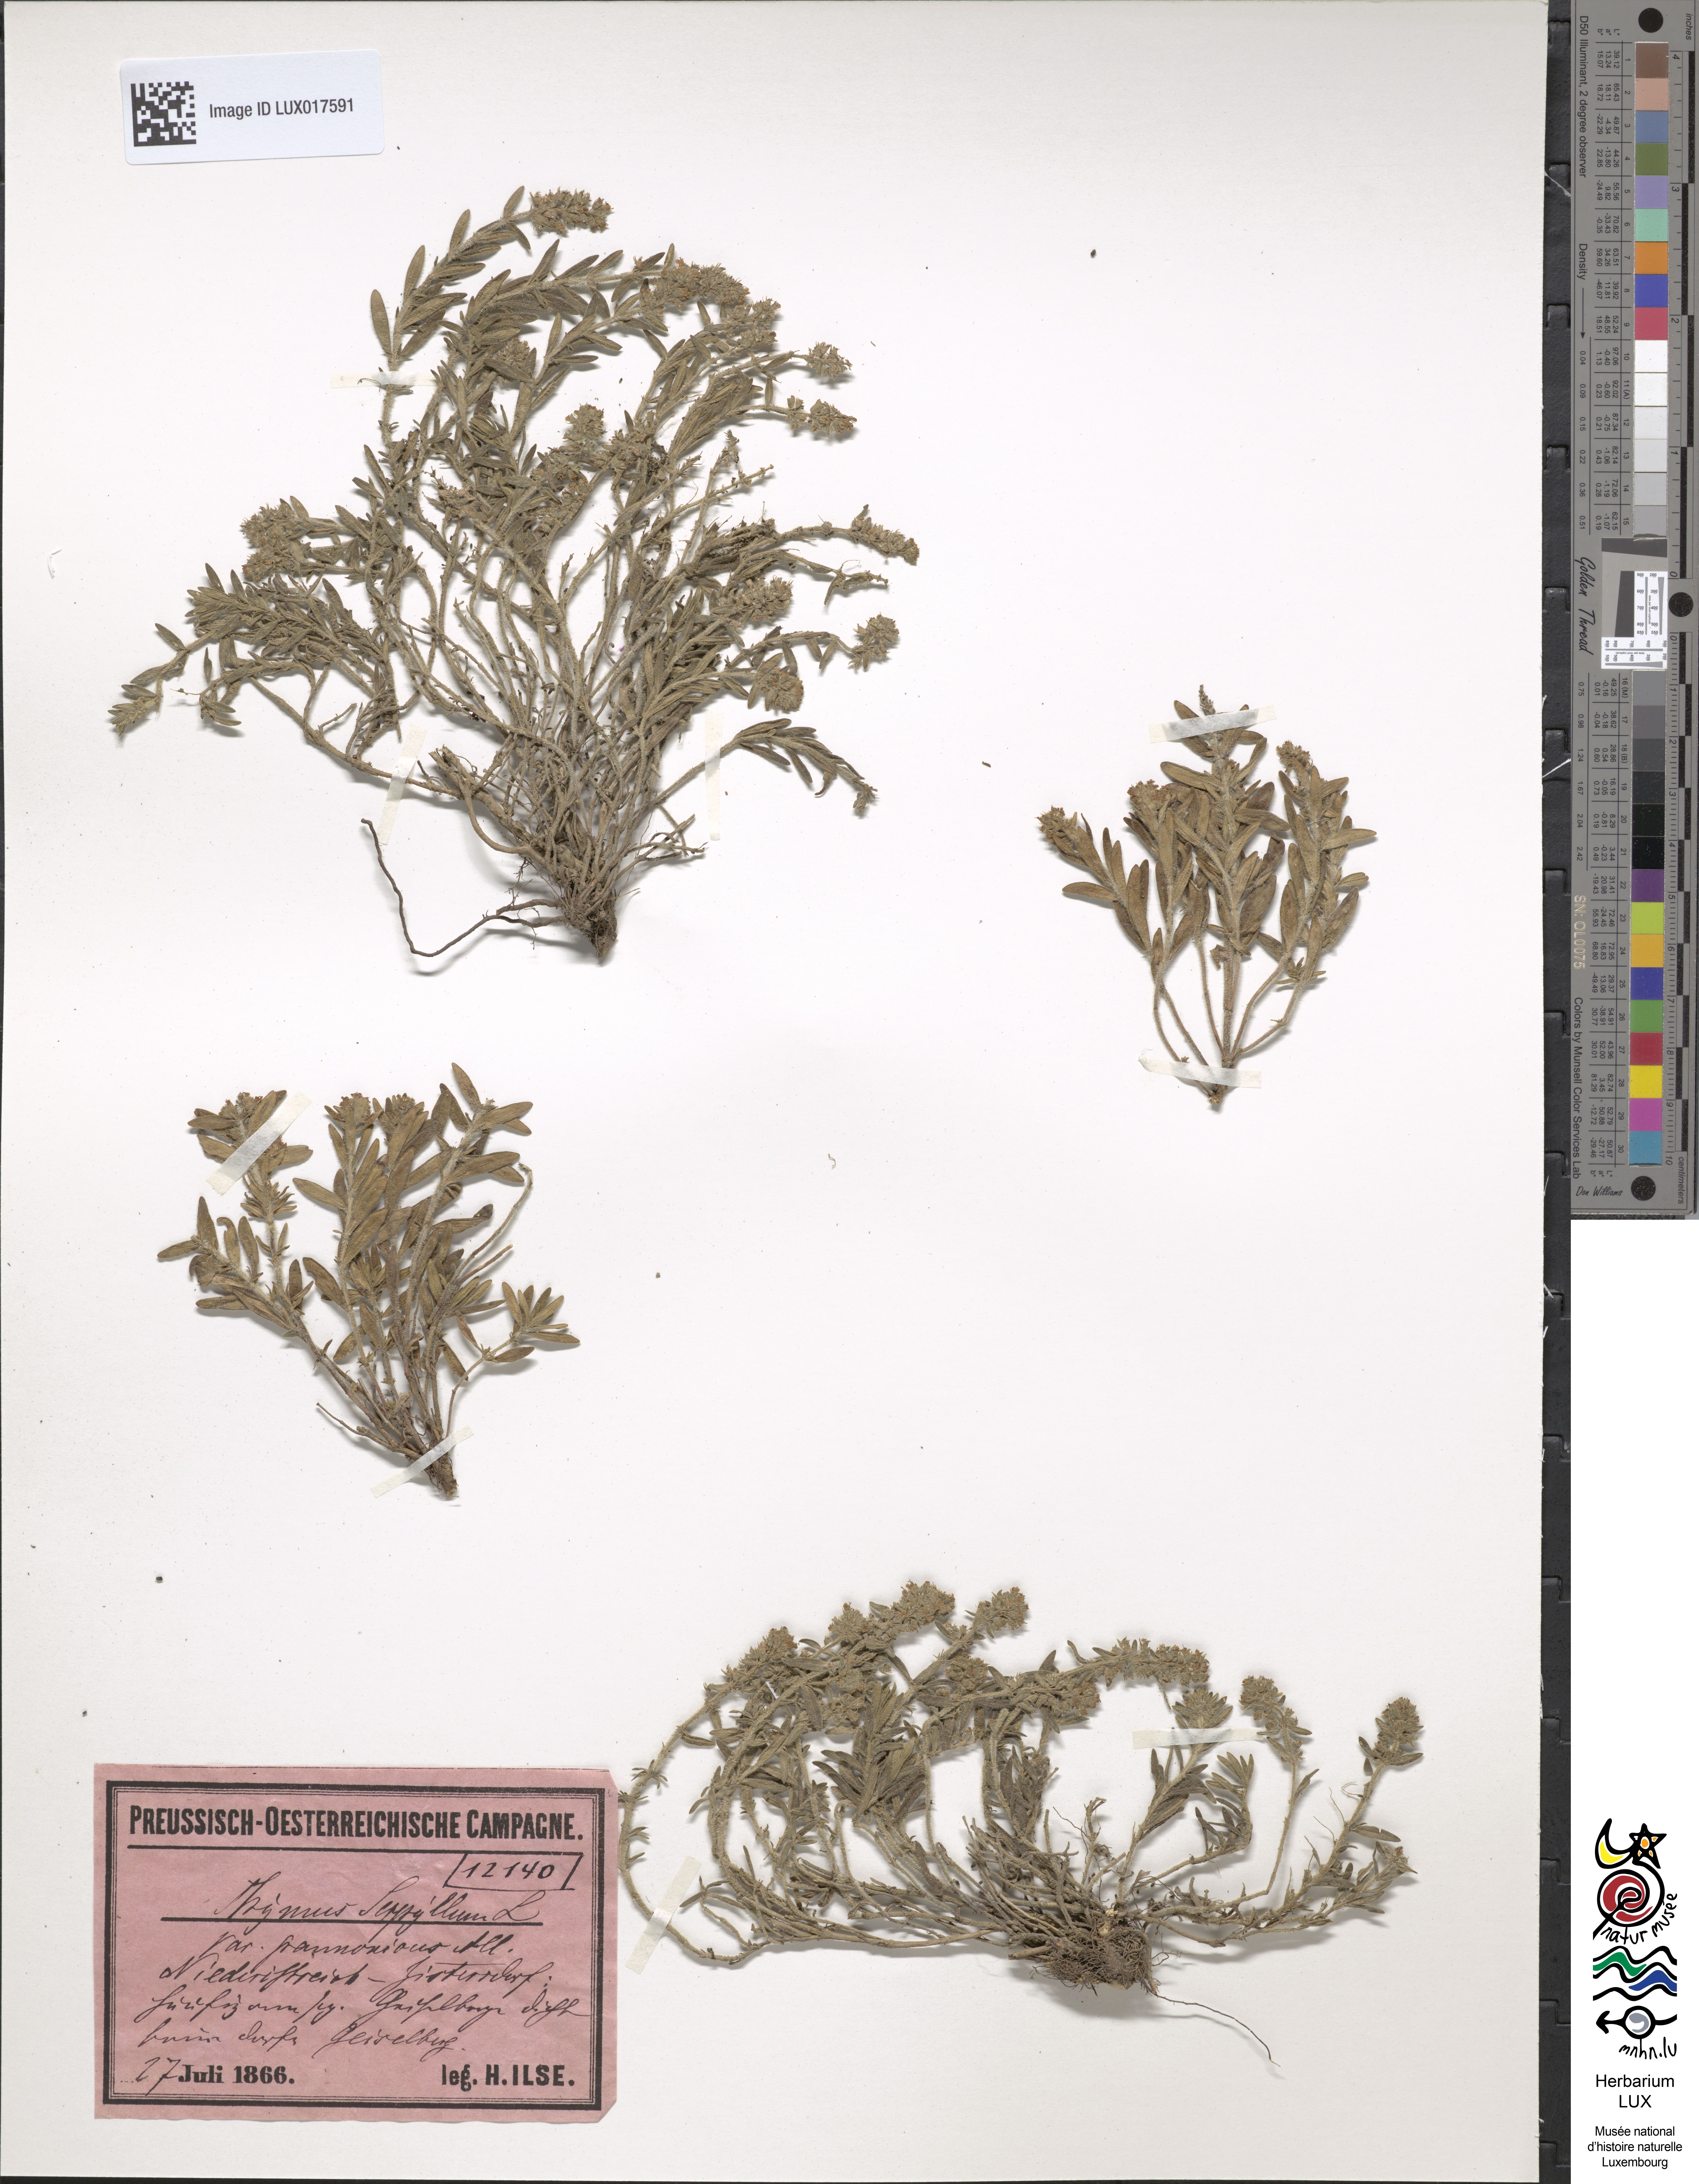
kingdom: Plantae
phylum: Tracheophyta
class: Magnoliopsida
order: Lamiales
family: Lamiaceae
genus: Thymus
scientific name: Thymus pannonicus
